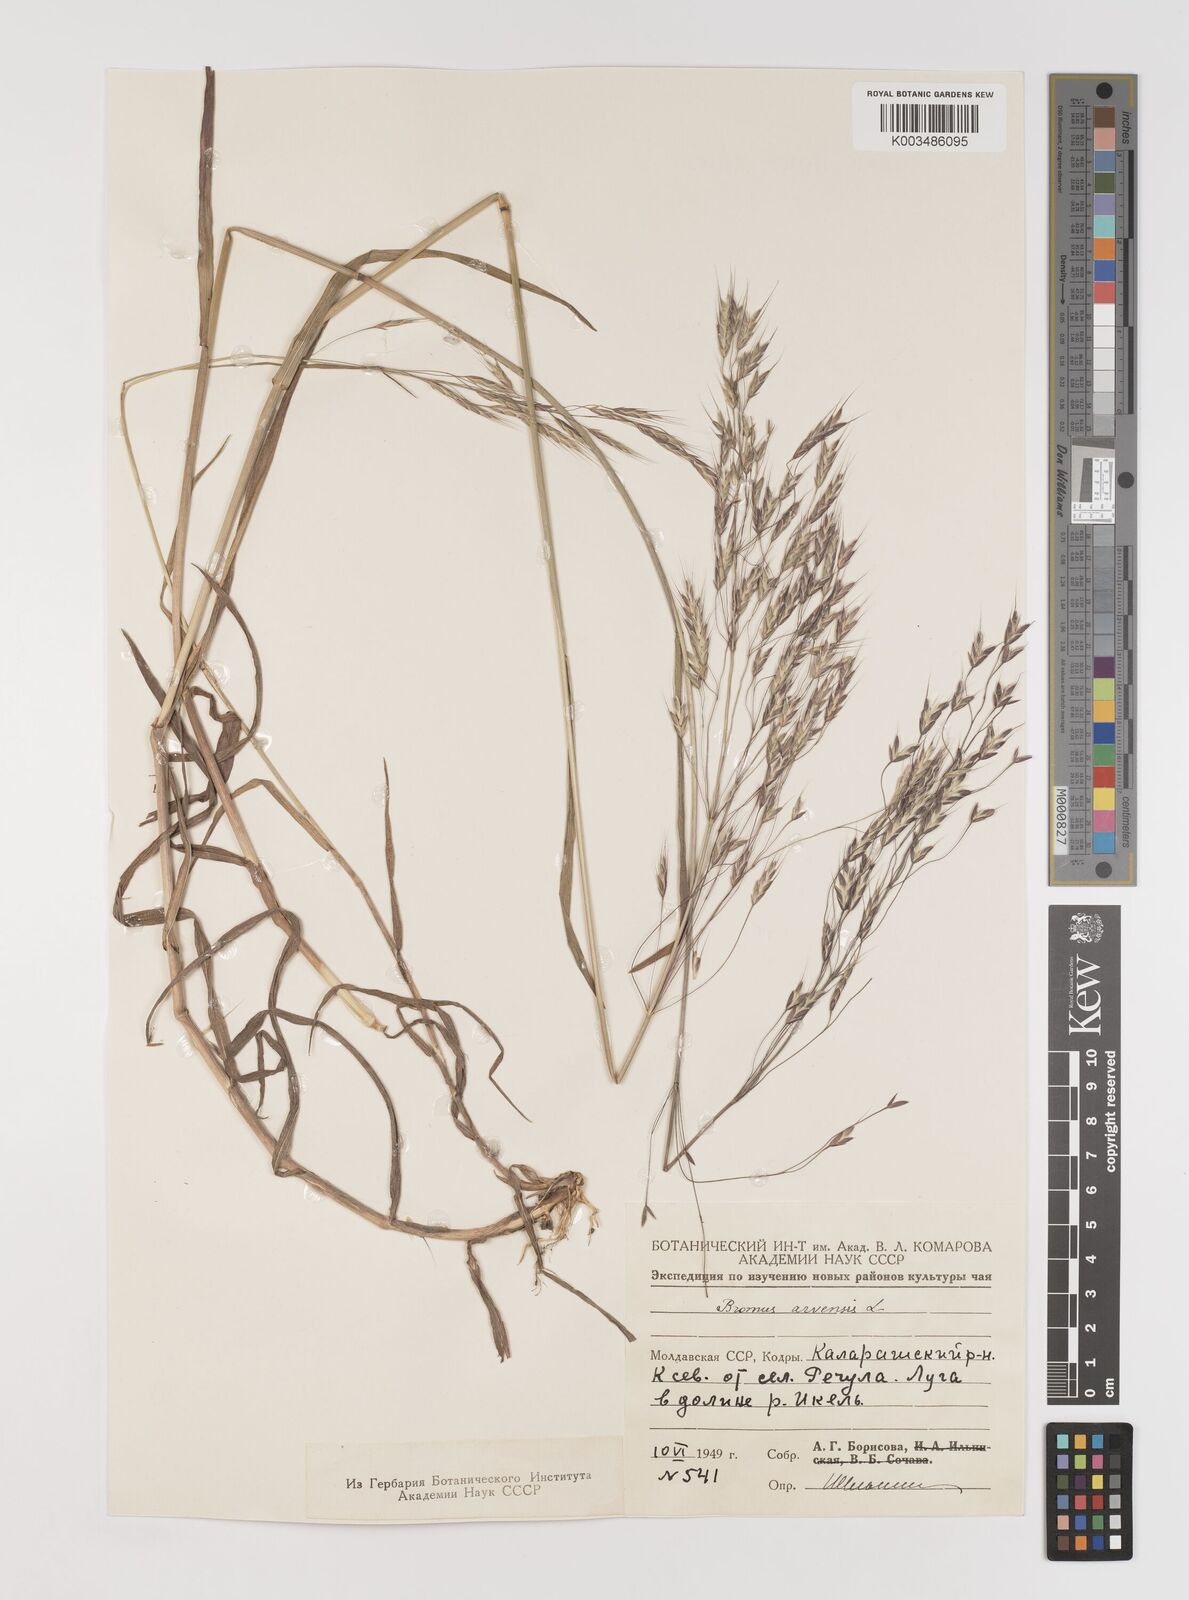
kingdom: Plantae
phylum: Tracheophyta
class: Liliopsida
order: Poales
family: Poaceae
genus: Bromus
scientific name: Bromus arvensis
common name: Field brome
